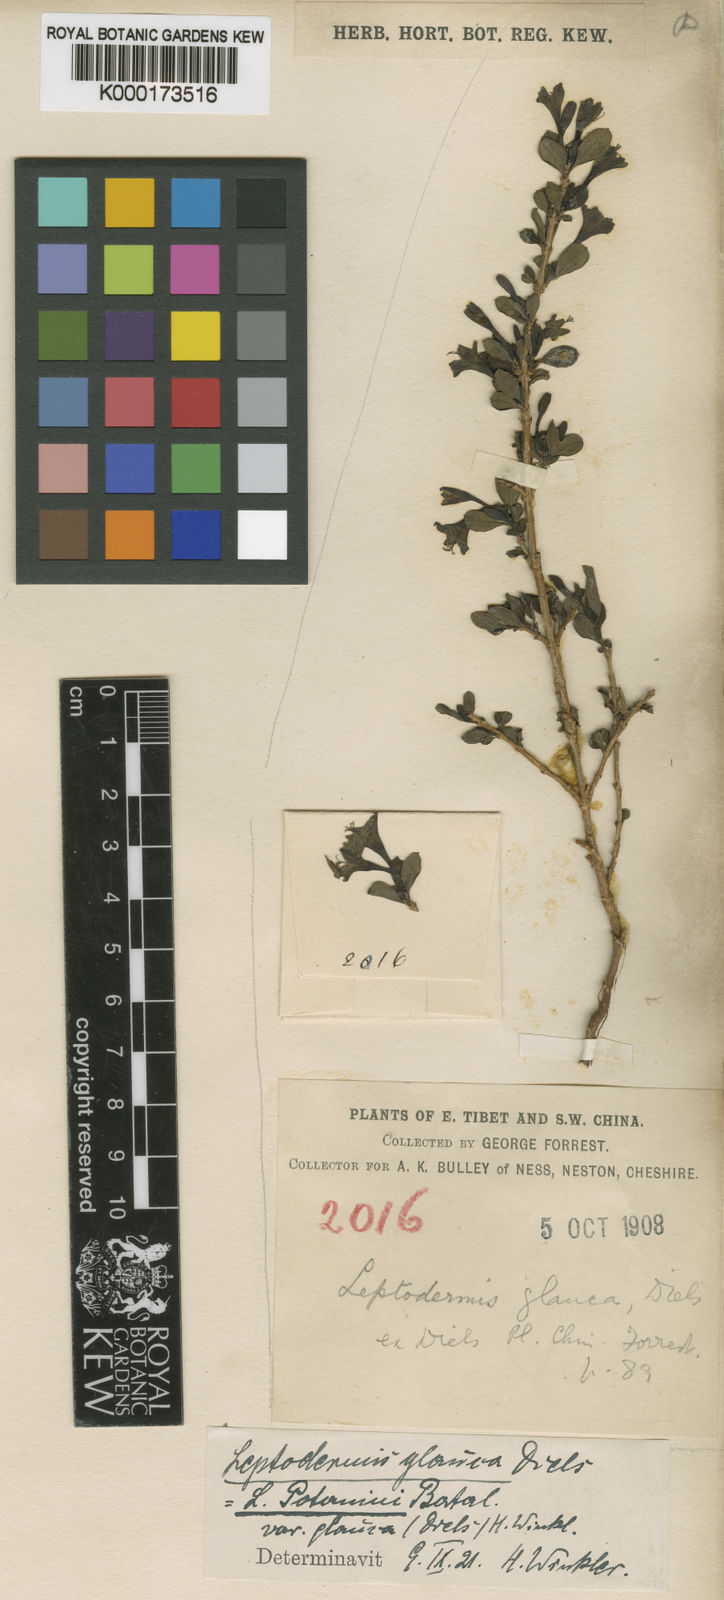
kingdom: Plantae
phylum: Tracheophyta
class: Magnoliopsida
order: Gentianales
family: Rubiaceae
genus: Leptodermis
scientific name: Leptodermis potaninii
